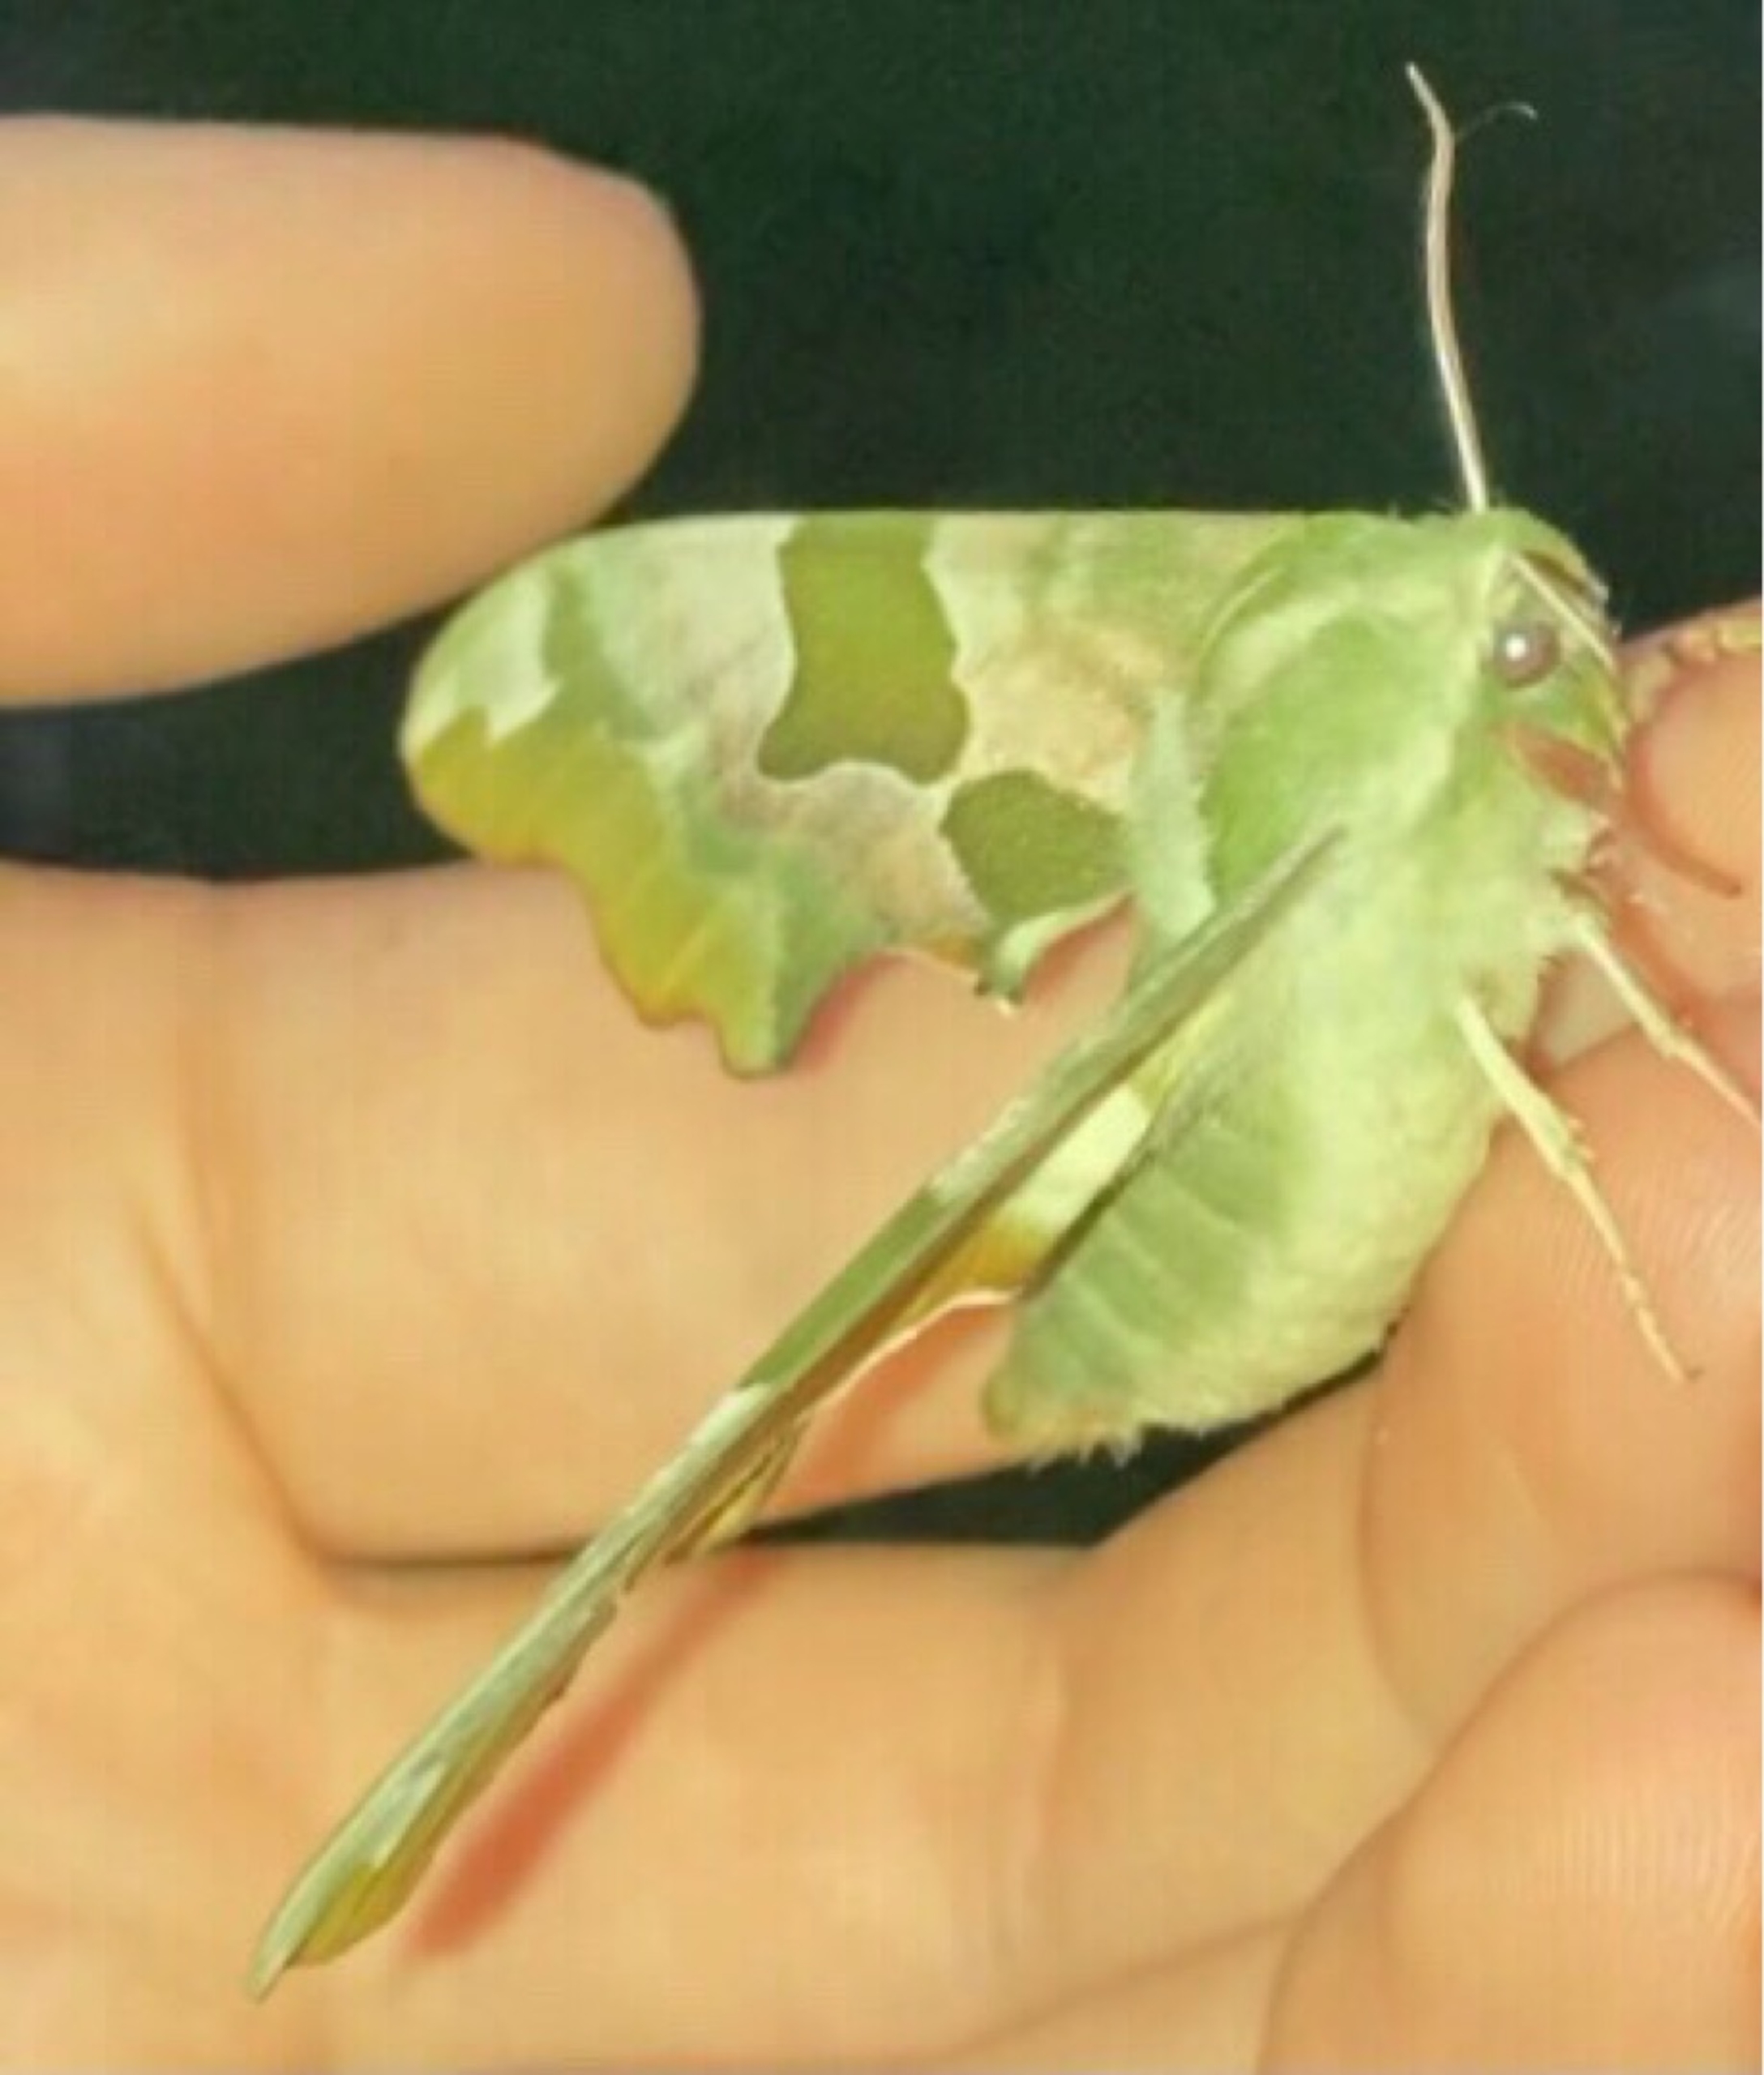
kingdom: Animalia
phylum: Arthropoda
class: Insecta
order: Lepidoptera
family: Sphingidae
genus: Mimas
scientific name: Mimas tiliae
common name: Lindesværmer
